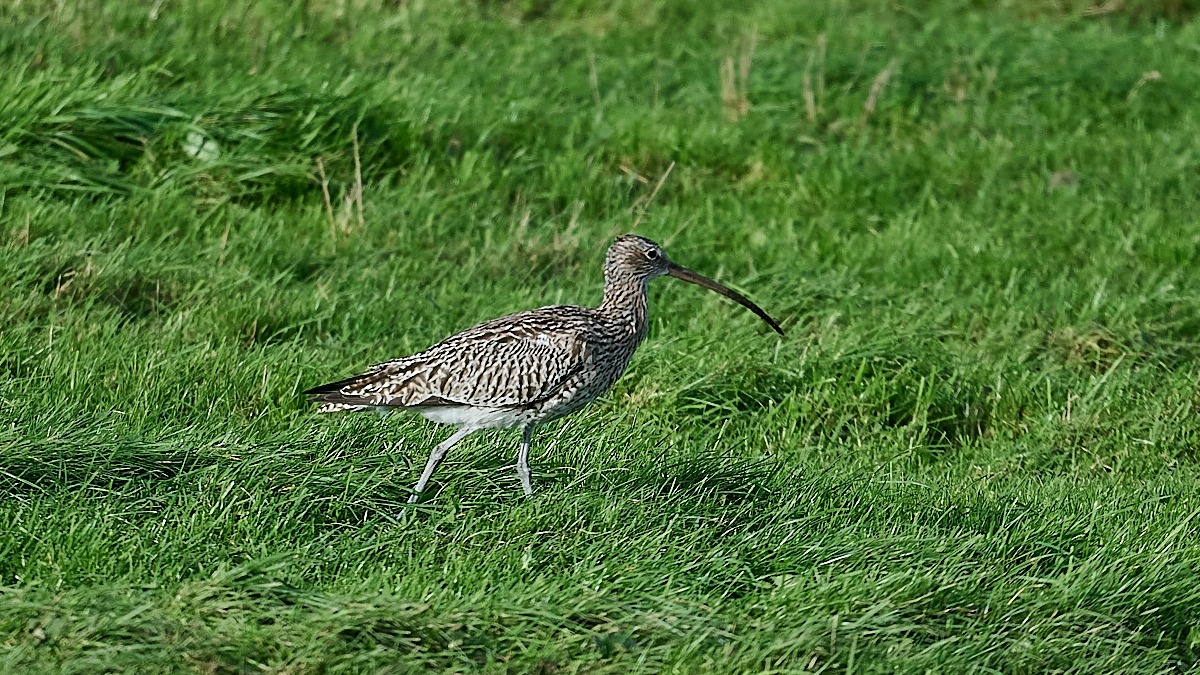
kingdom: Animalia
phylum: Chordata
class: Aves
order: Charadriiformes
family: Scolopacidae
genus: Numenius
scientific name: Numenius arquata
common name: Storspove
